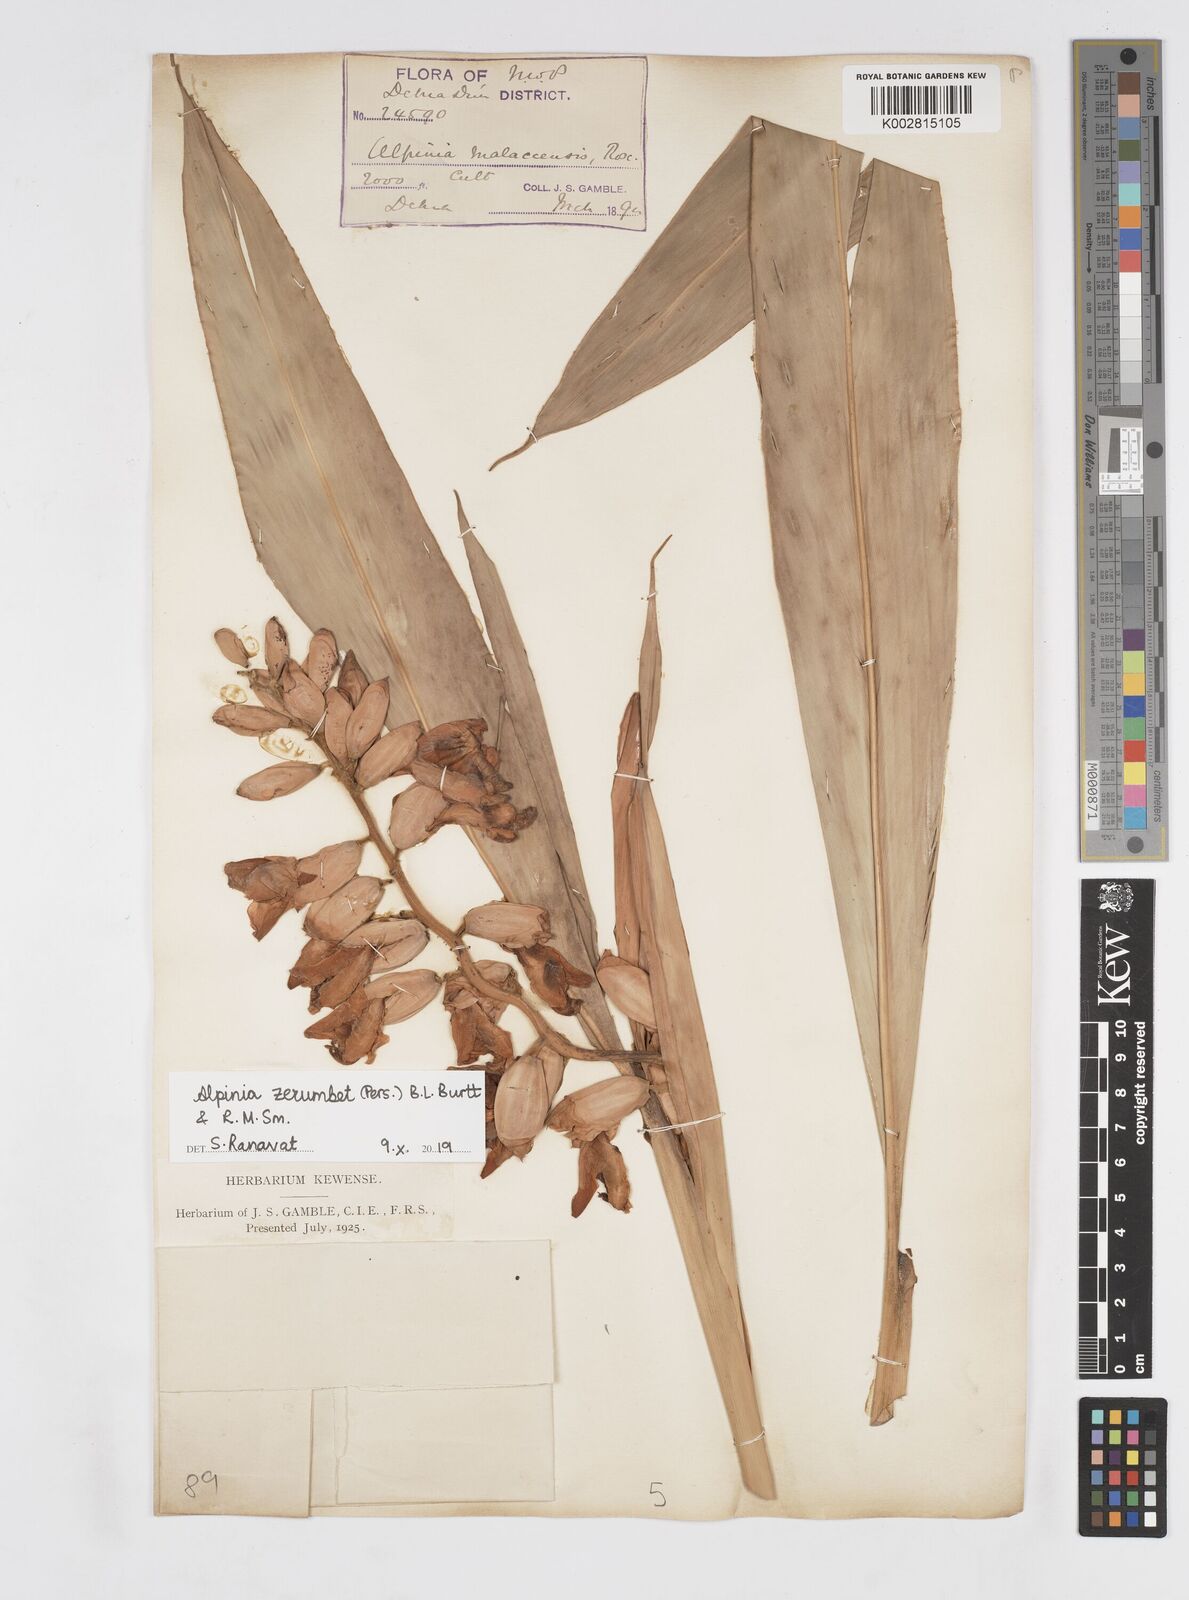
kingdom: Plantae
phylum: Tracheophyta
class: Liliopsida
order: Zingiberales
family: Zingiberaceae
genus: Alpinia
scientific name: Alpinia zerumbet
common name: Shellplant
